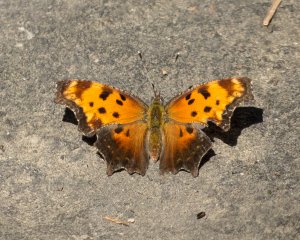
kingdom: Animalia
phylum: Arthropoda
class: Insecta
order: Lepidoptera
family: Nymphalidae
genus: Polygonia
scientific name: Polygonia progne
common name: Gray Comma
